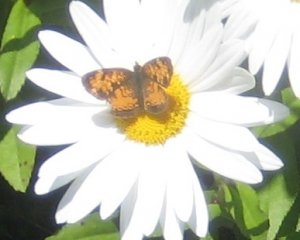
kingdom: Animalia
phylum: Arthropoda
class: Insecta
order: Lepidoptera
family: Nymphalidae
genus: Phyciodes
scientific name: Phyciodes tharos
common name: Northern Crescent
